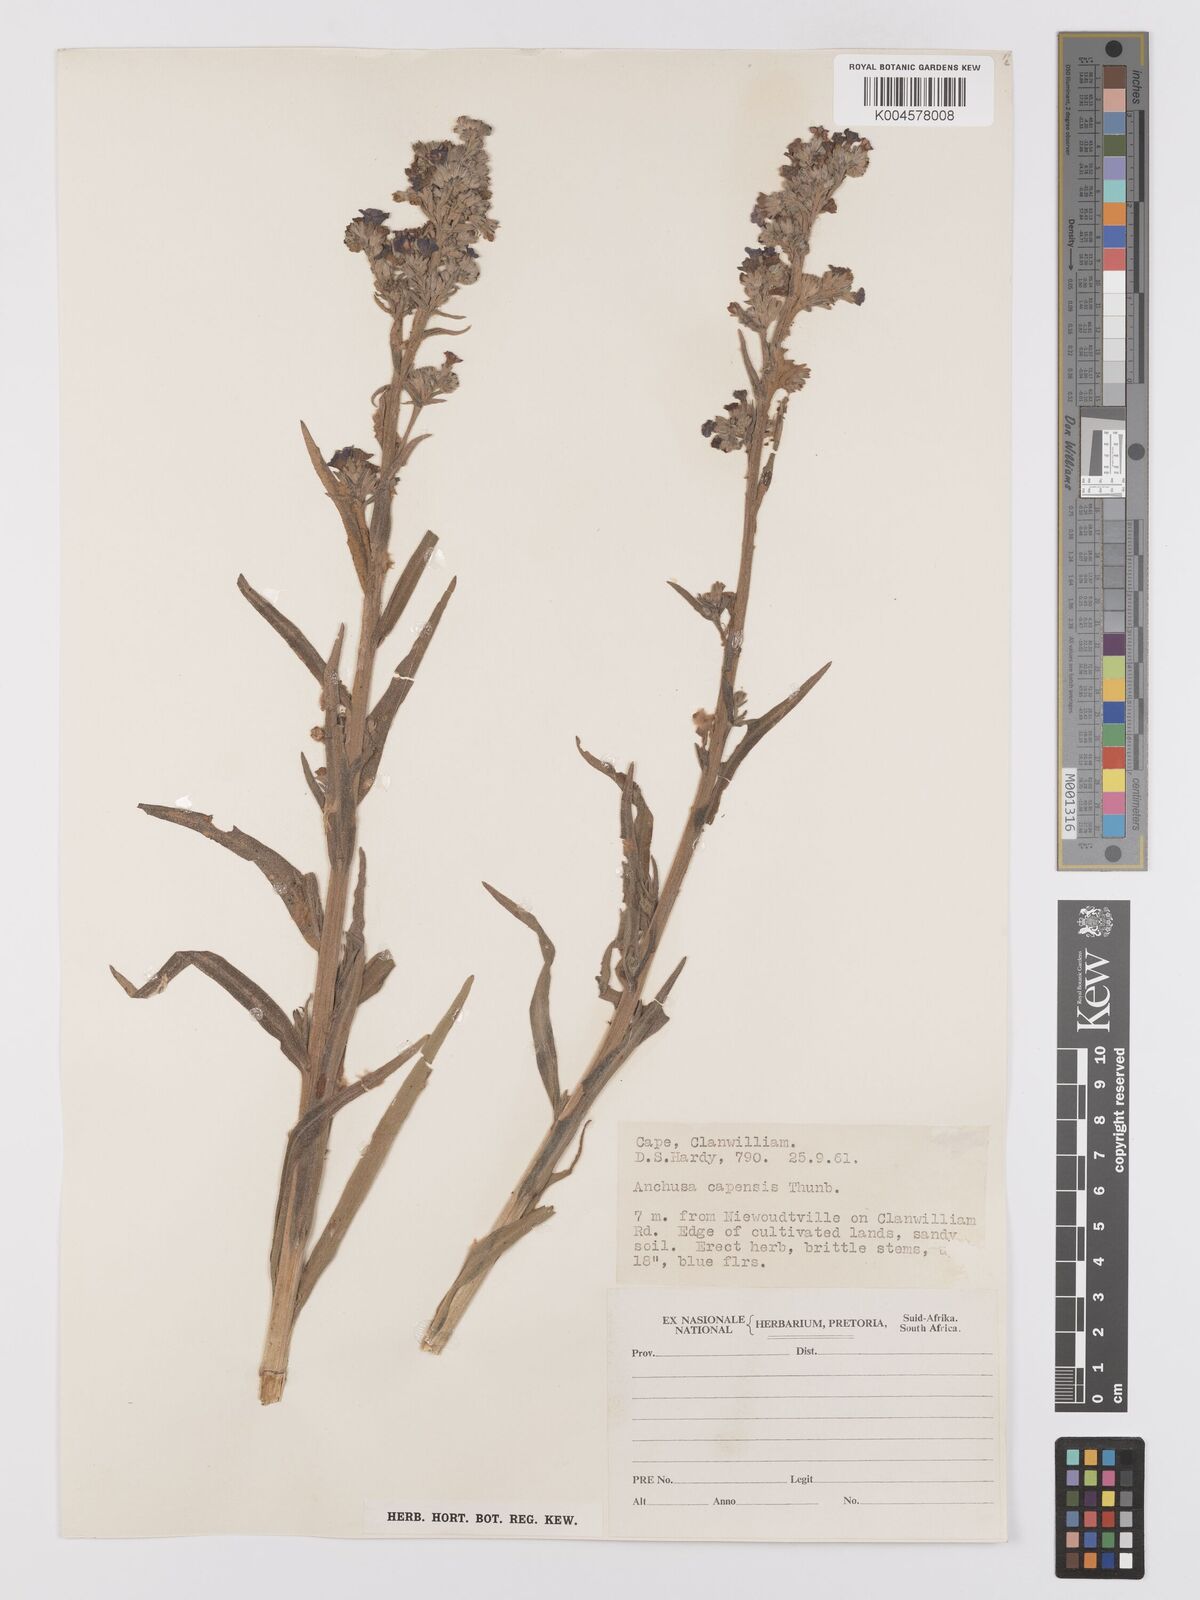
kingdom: Plantae
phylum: Tracheophyta
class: Magnoliopsida
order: Boraginales
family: Boraginaceae
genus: Anchusa
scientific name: Anchusa capensis
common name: Cape bugloss
